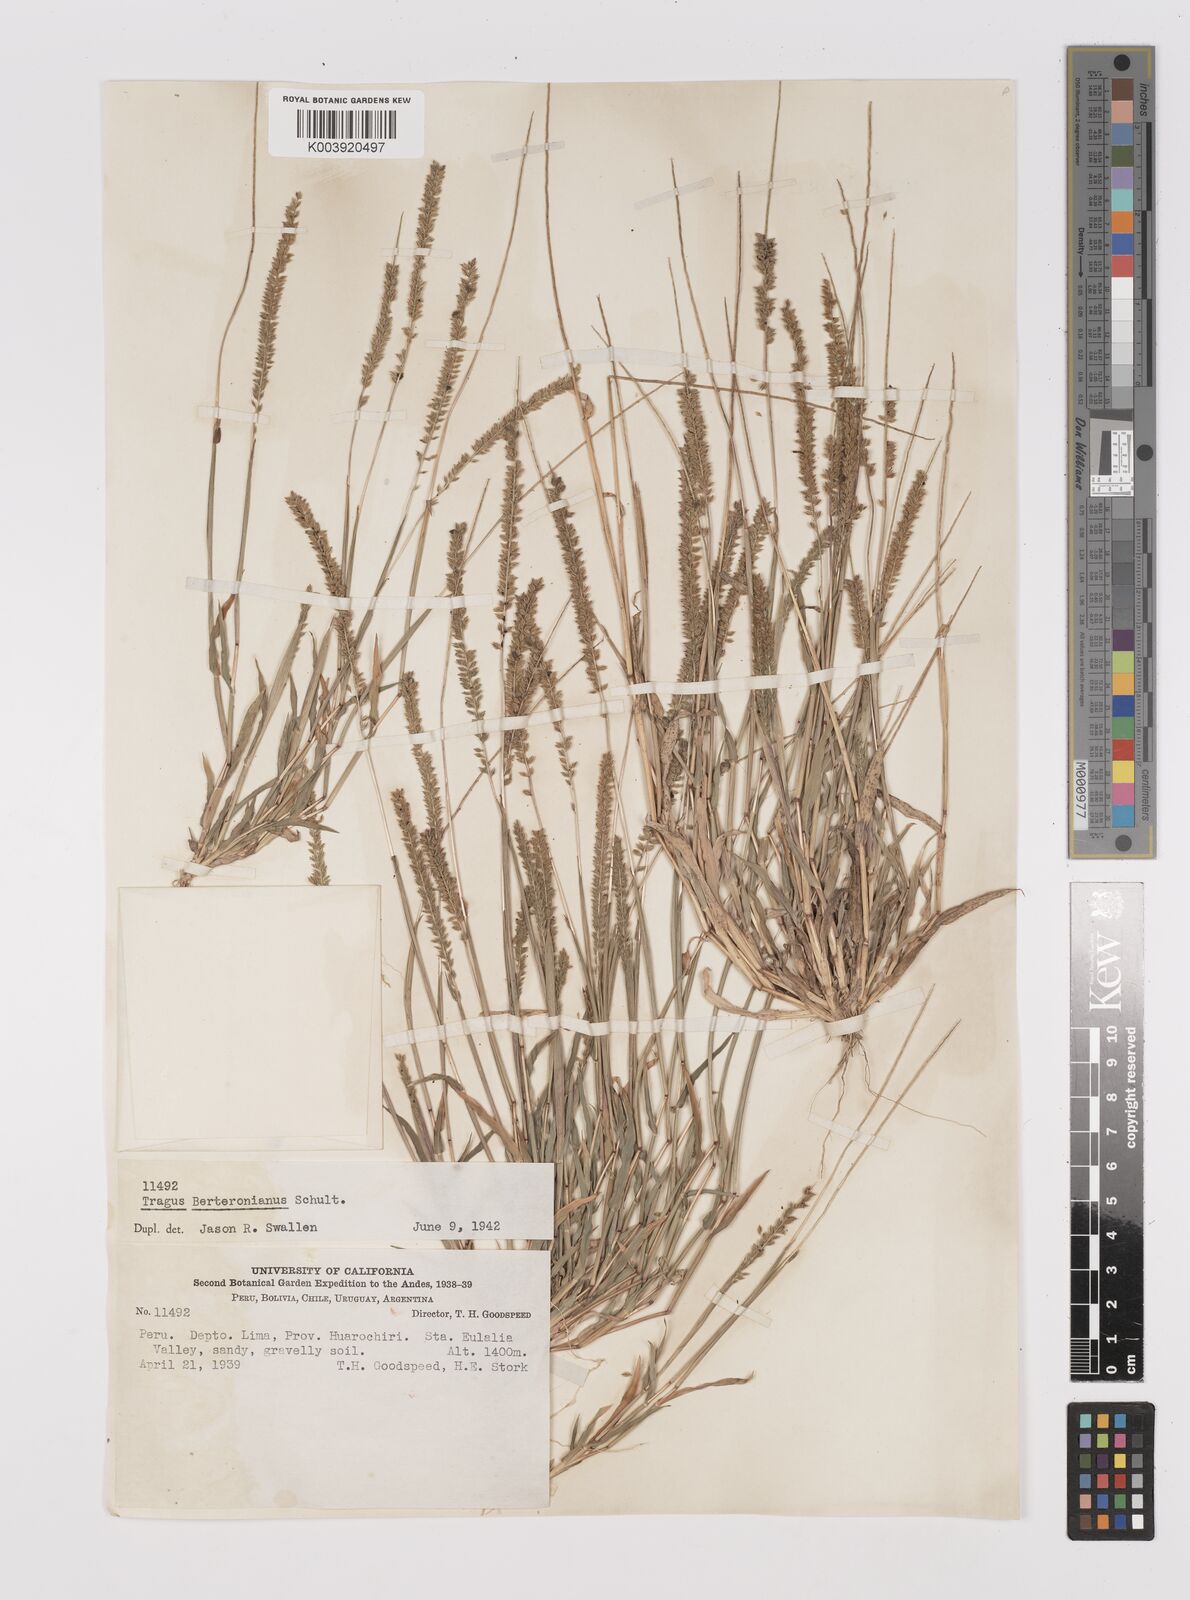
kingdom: Plantae
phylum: Tracheophyta
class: Liliopsida
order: Poales
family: Poaceae
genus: Tragus
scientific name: Tragus berteronianus
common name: African bur-grass
